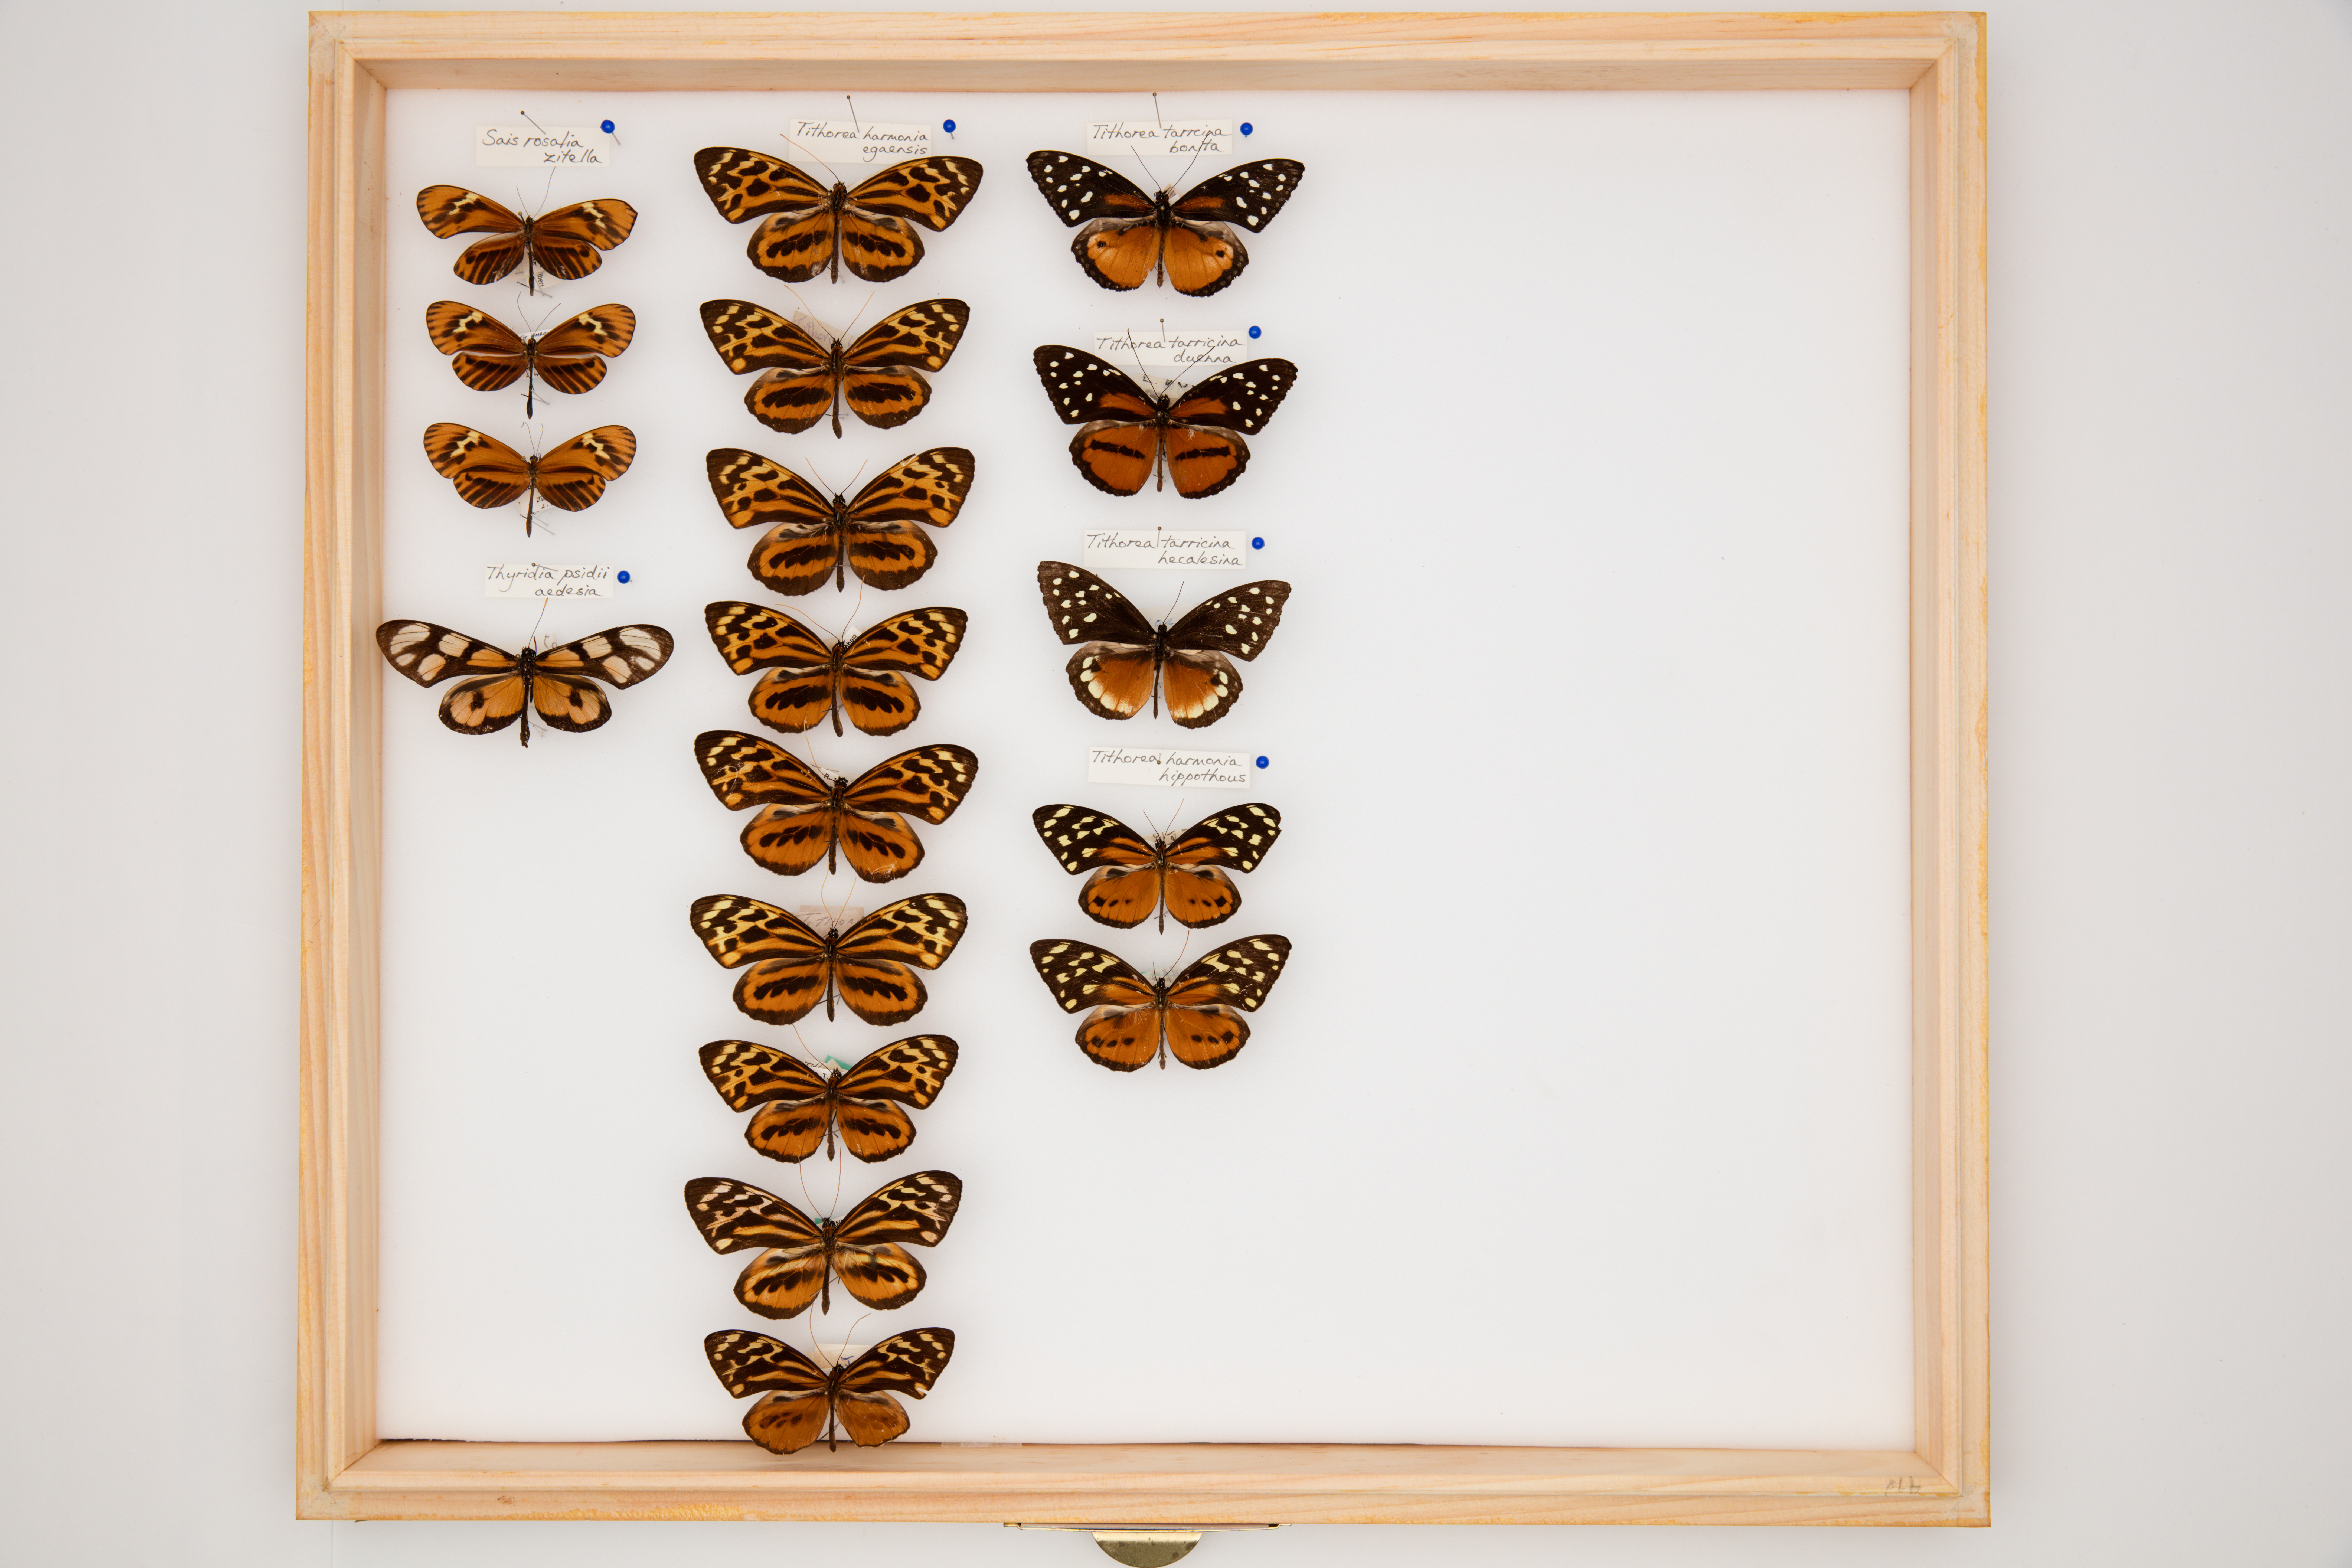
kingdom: Animalia
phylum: Arthropoda
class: Insecta
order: Lepidoptera
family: Nymphalidae
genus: Tithorea
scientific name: Tithorea tarricina
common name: Cream-spotted tigerwing
